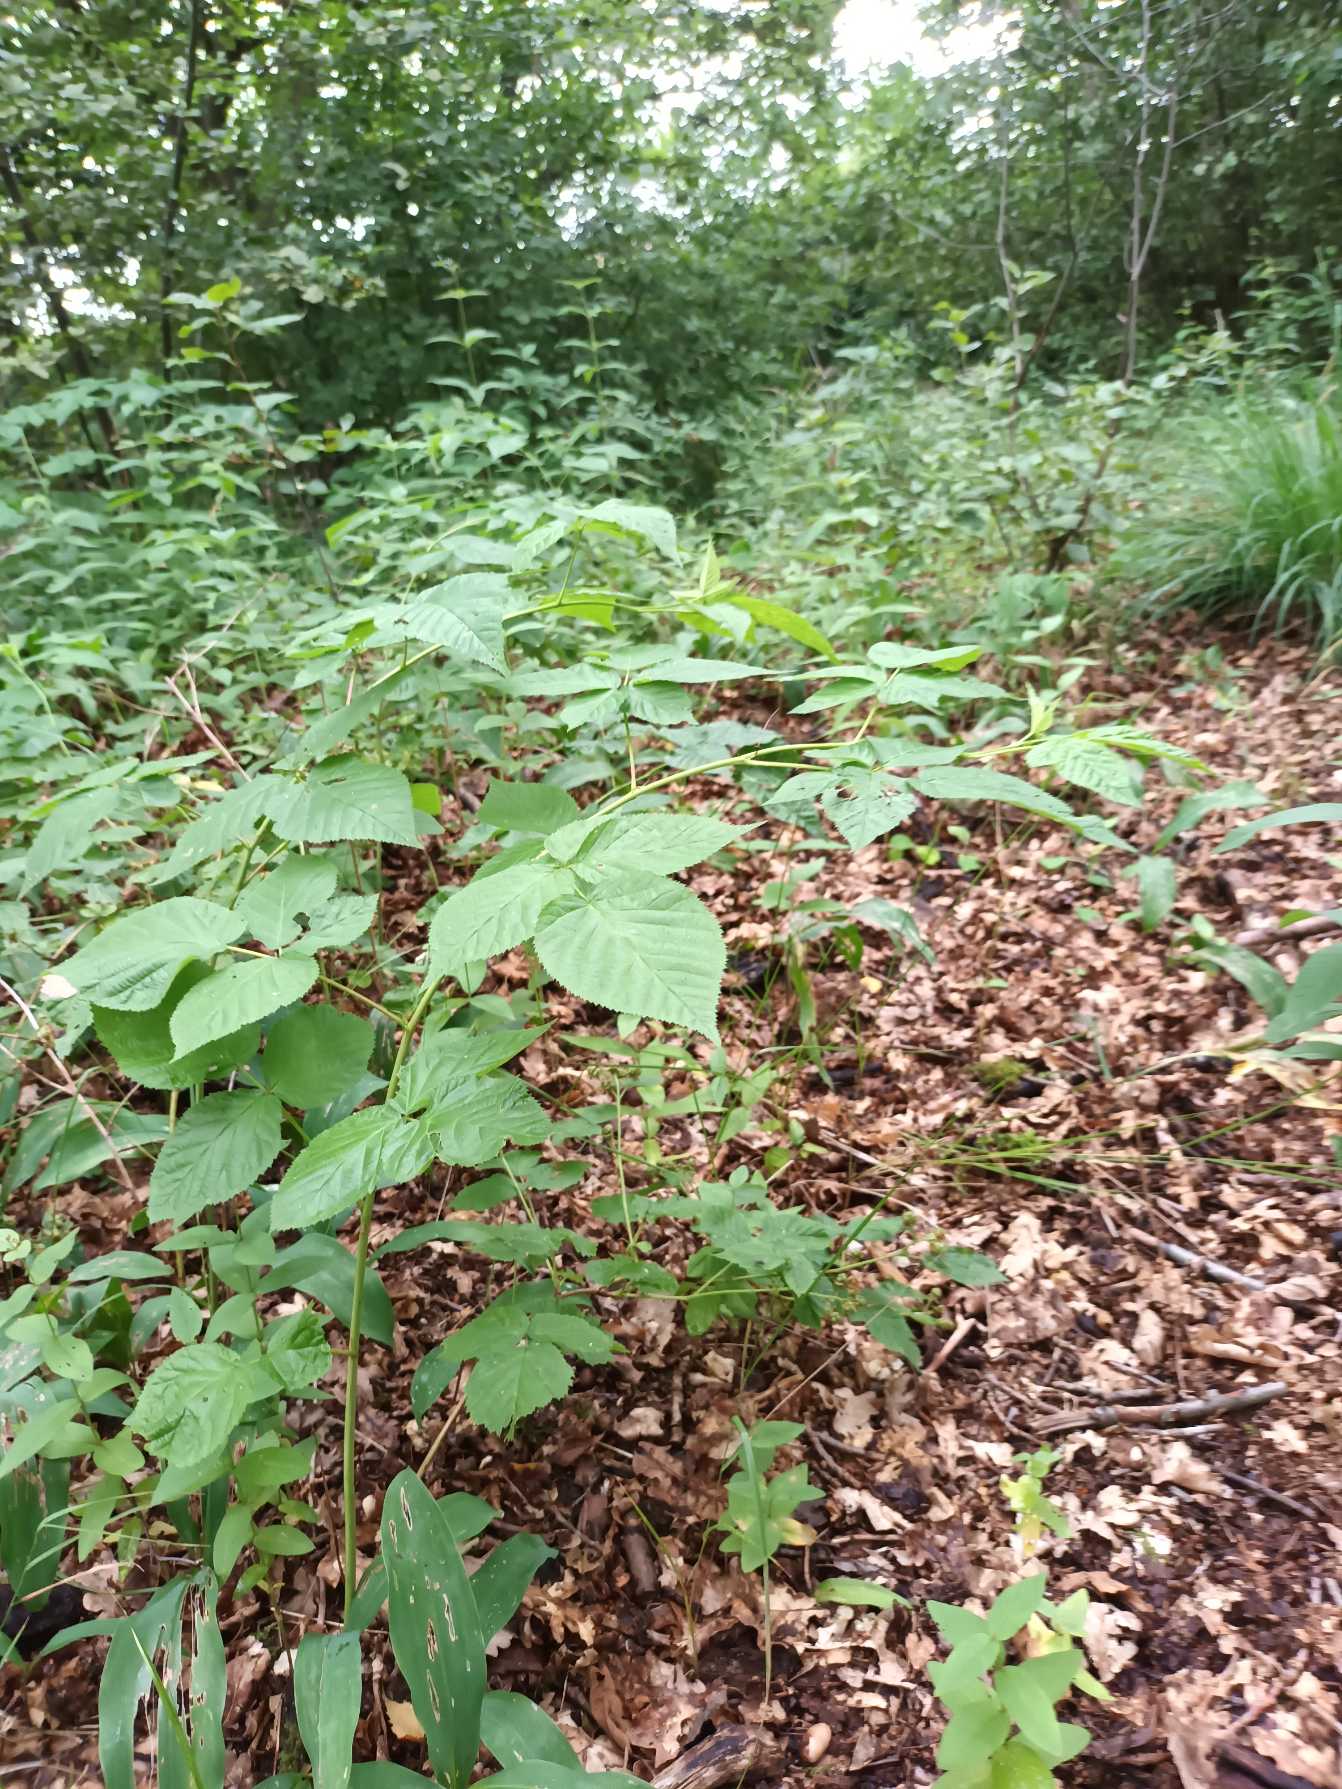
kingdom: Plantae
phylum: Tracheophyta
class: Magnoliopsida
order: Rosales
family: Rosaceae
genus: Rubus
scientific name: Rubus scissoides
